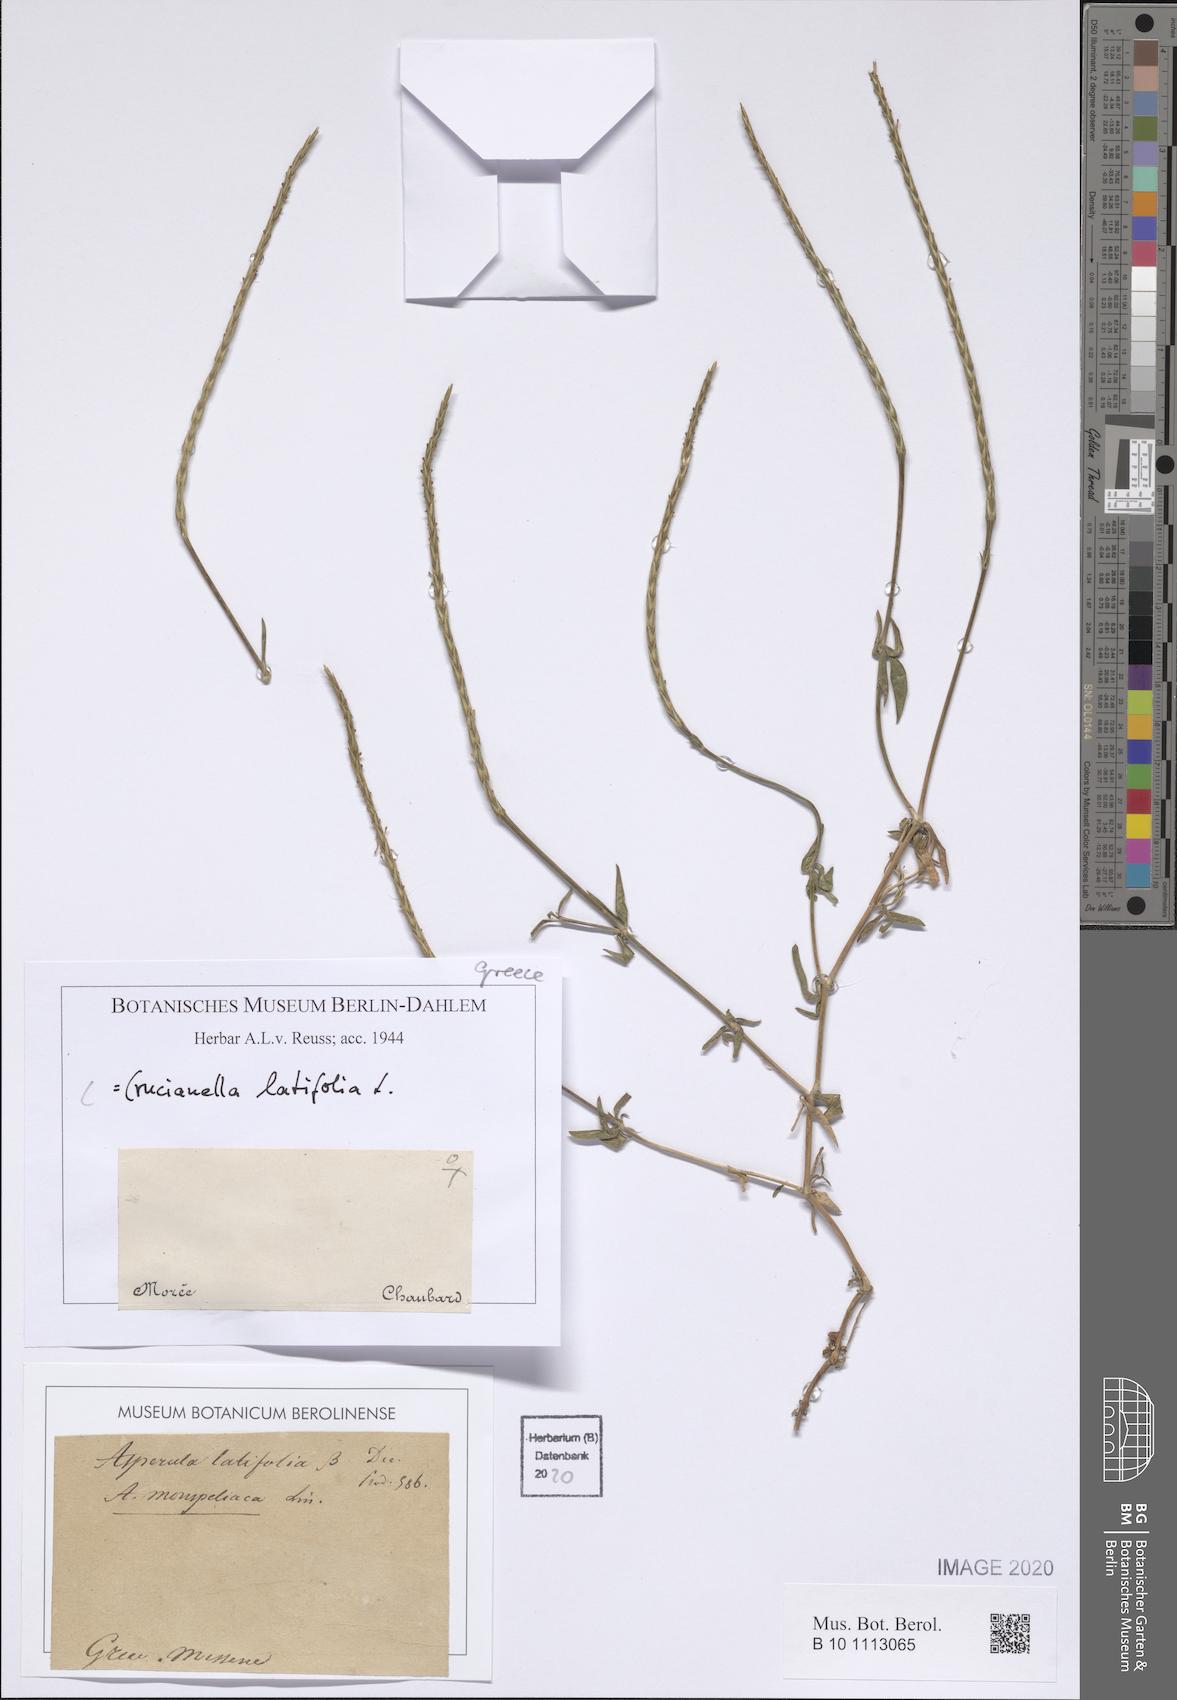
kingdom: Plantae
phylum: Tracheophyta
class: Magnoliopsida
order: Gentianales
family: Rubiaceae
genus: Crucianella
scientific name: Crucianella latifolia
